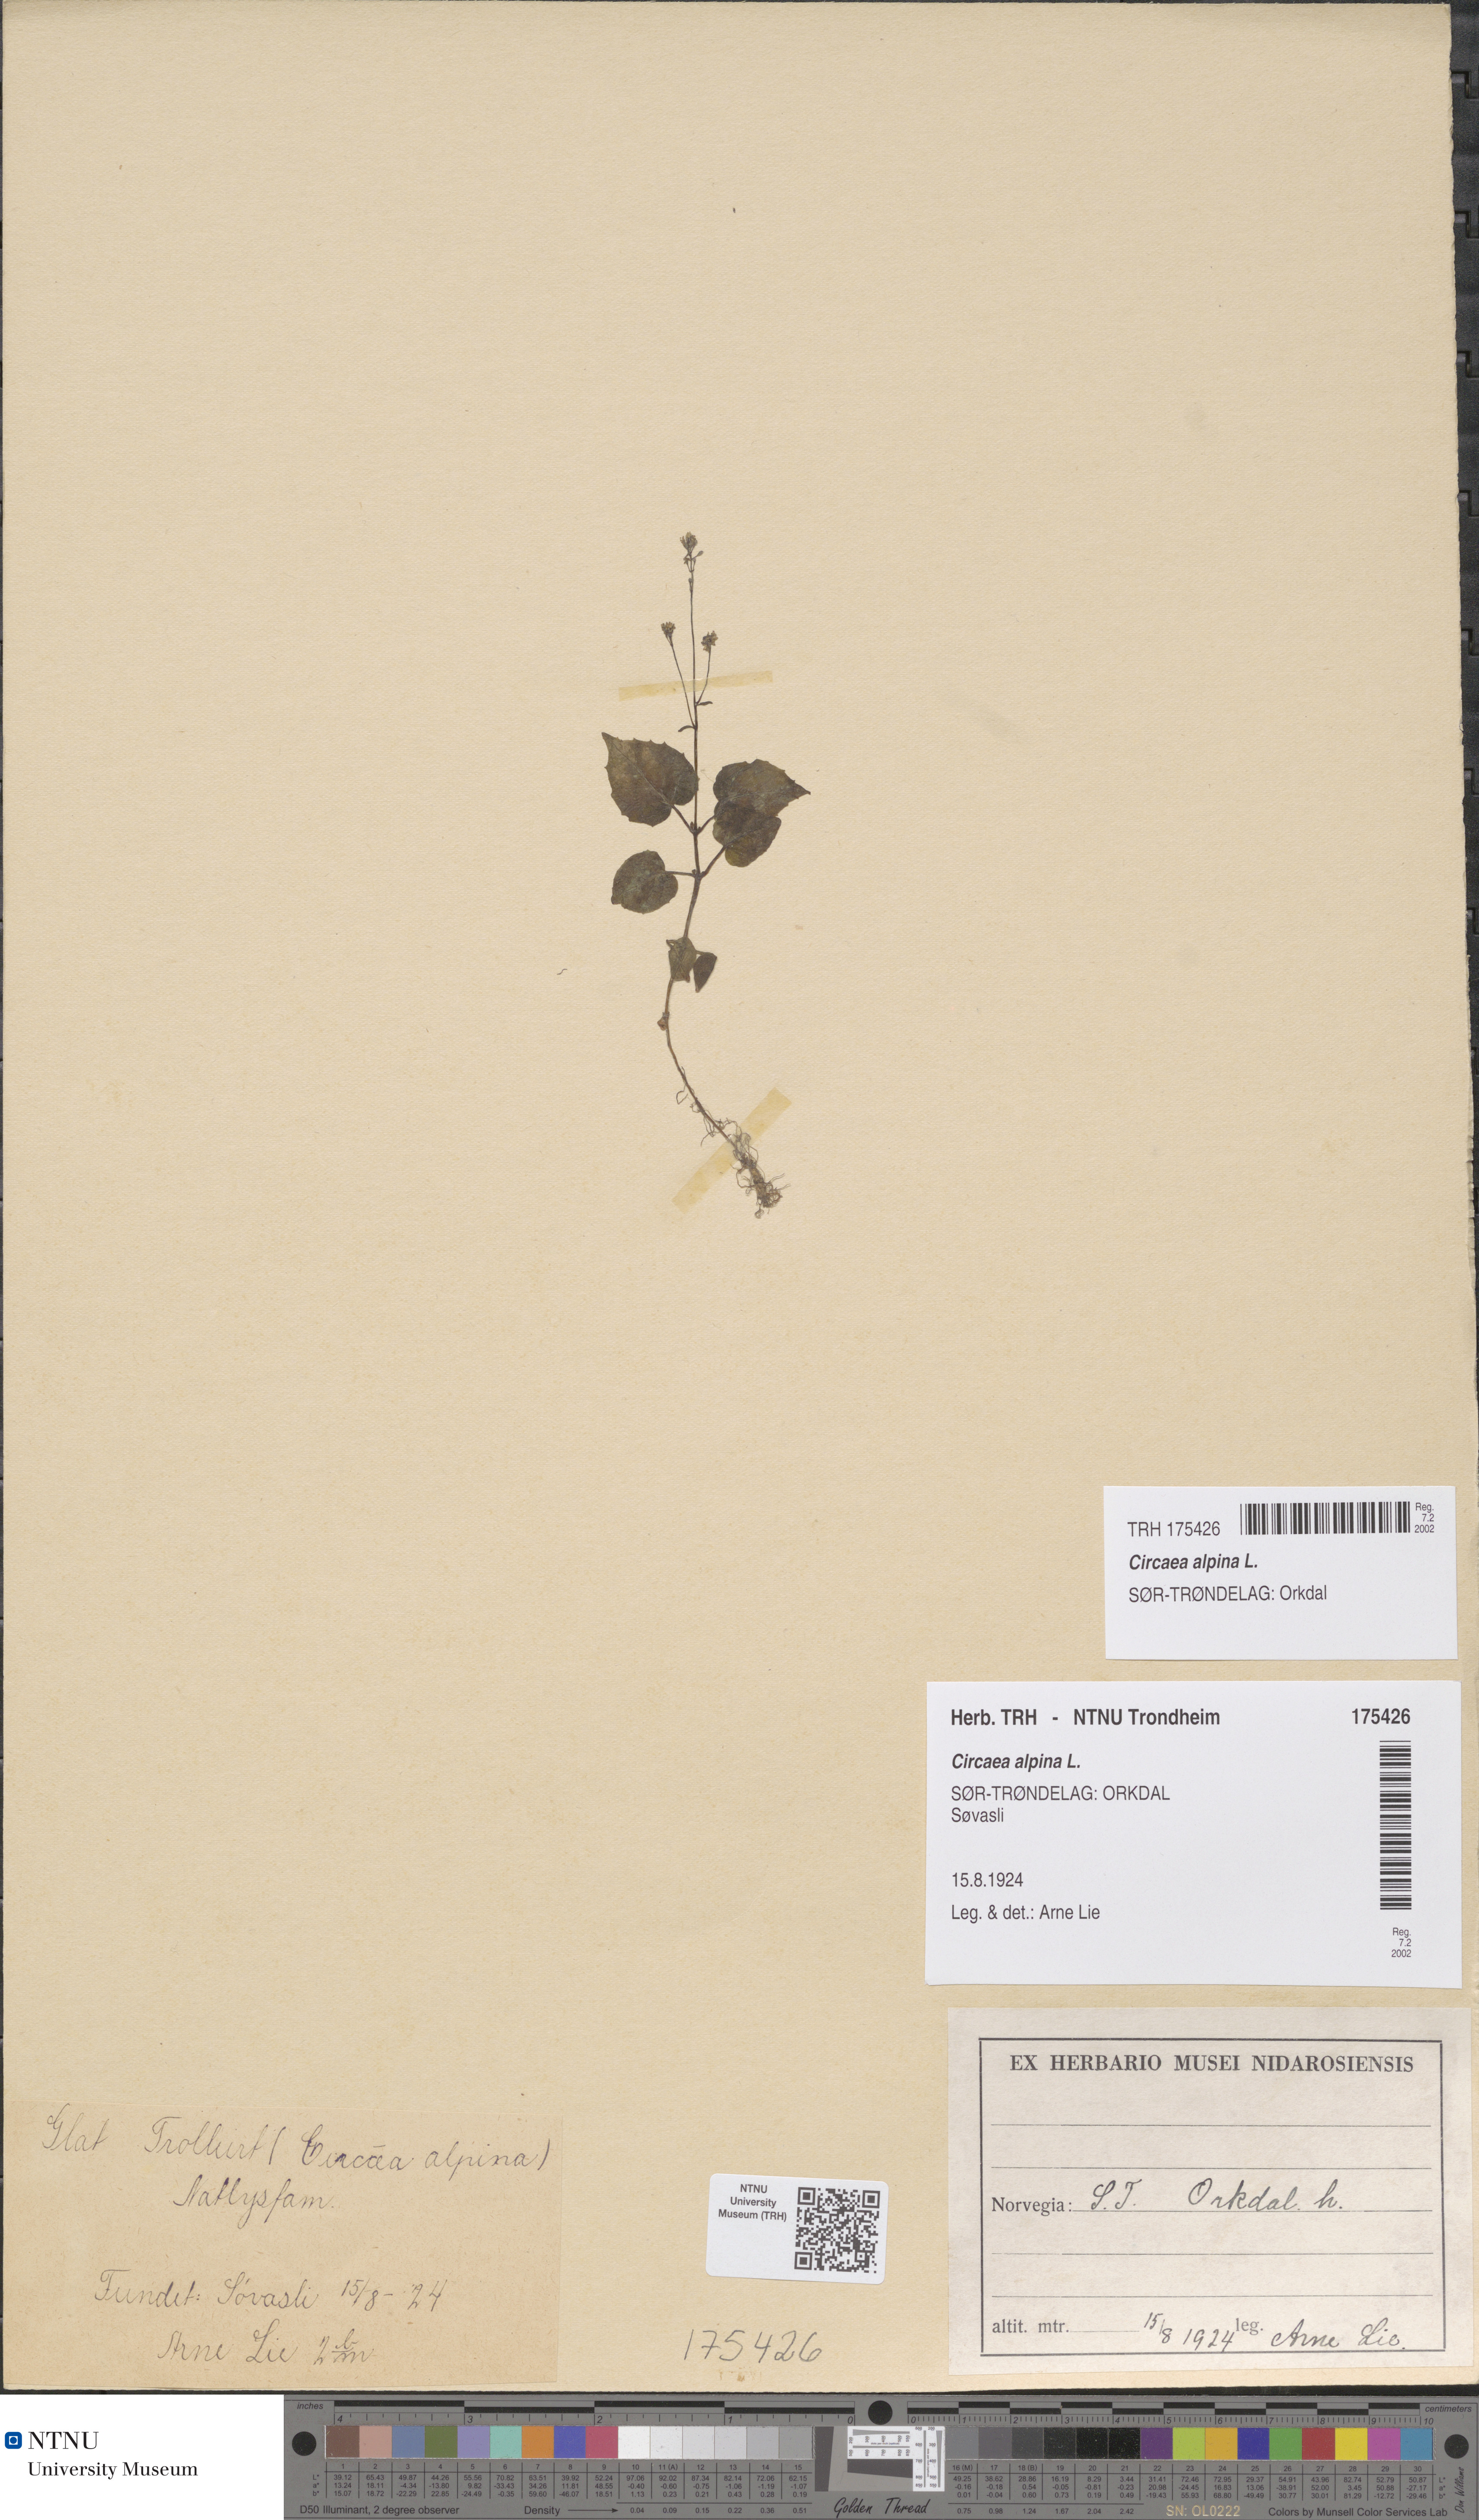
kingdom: Plantae
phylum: Tracheophyta
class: Magnoliopsida
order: Myrtales
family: Onagraceae
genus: Circaea
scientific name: Circaea alpina
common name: Alpine enchanter's-nightshade
